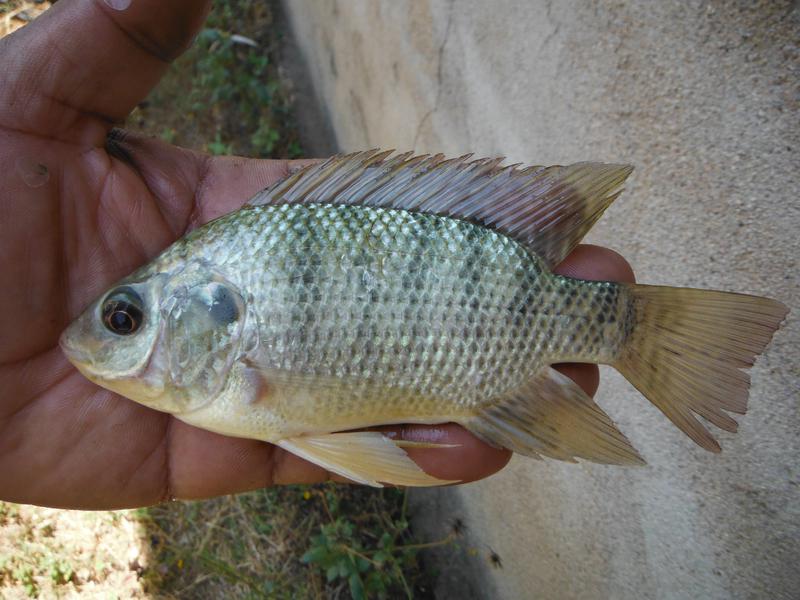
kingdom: Animalia
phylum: Chordata
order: Perciformes
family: Cichlidae
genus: Oreochromis
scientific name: Oreochromis
